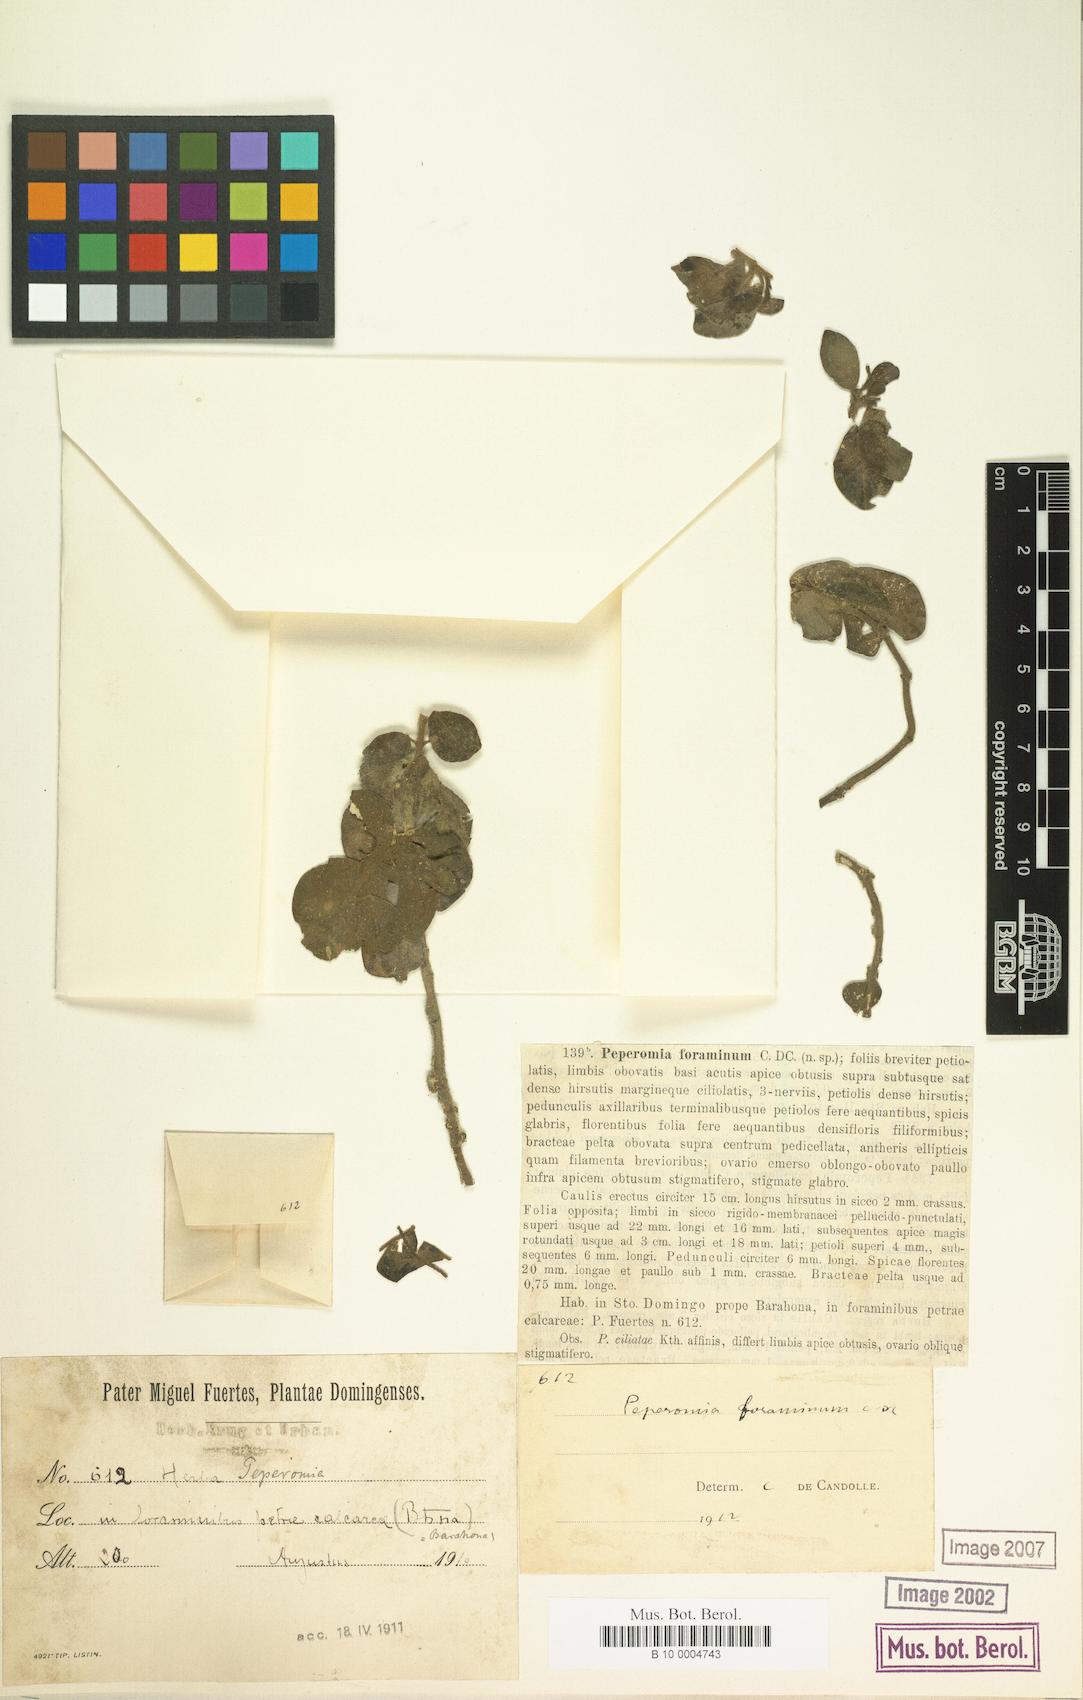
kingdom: Plantae
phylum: Tracheophyta
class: Magnoliopsida
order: Piperales
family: Piperaceae
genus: Peperomia
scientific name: Peperomia san-carlosiana
